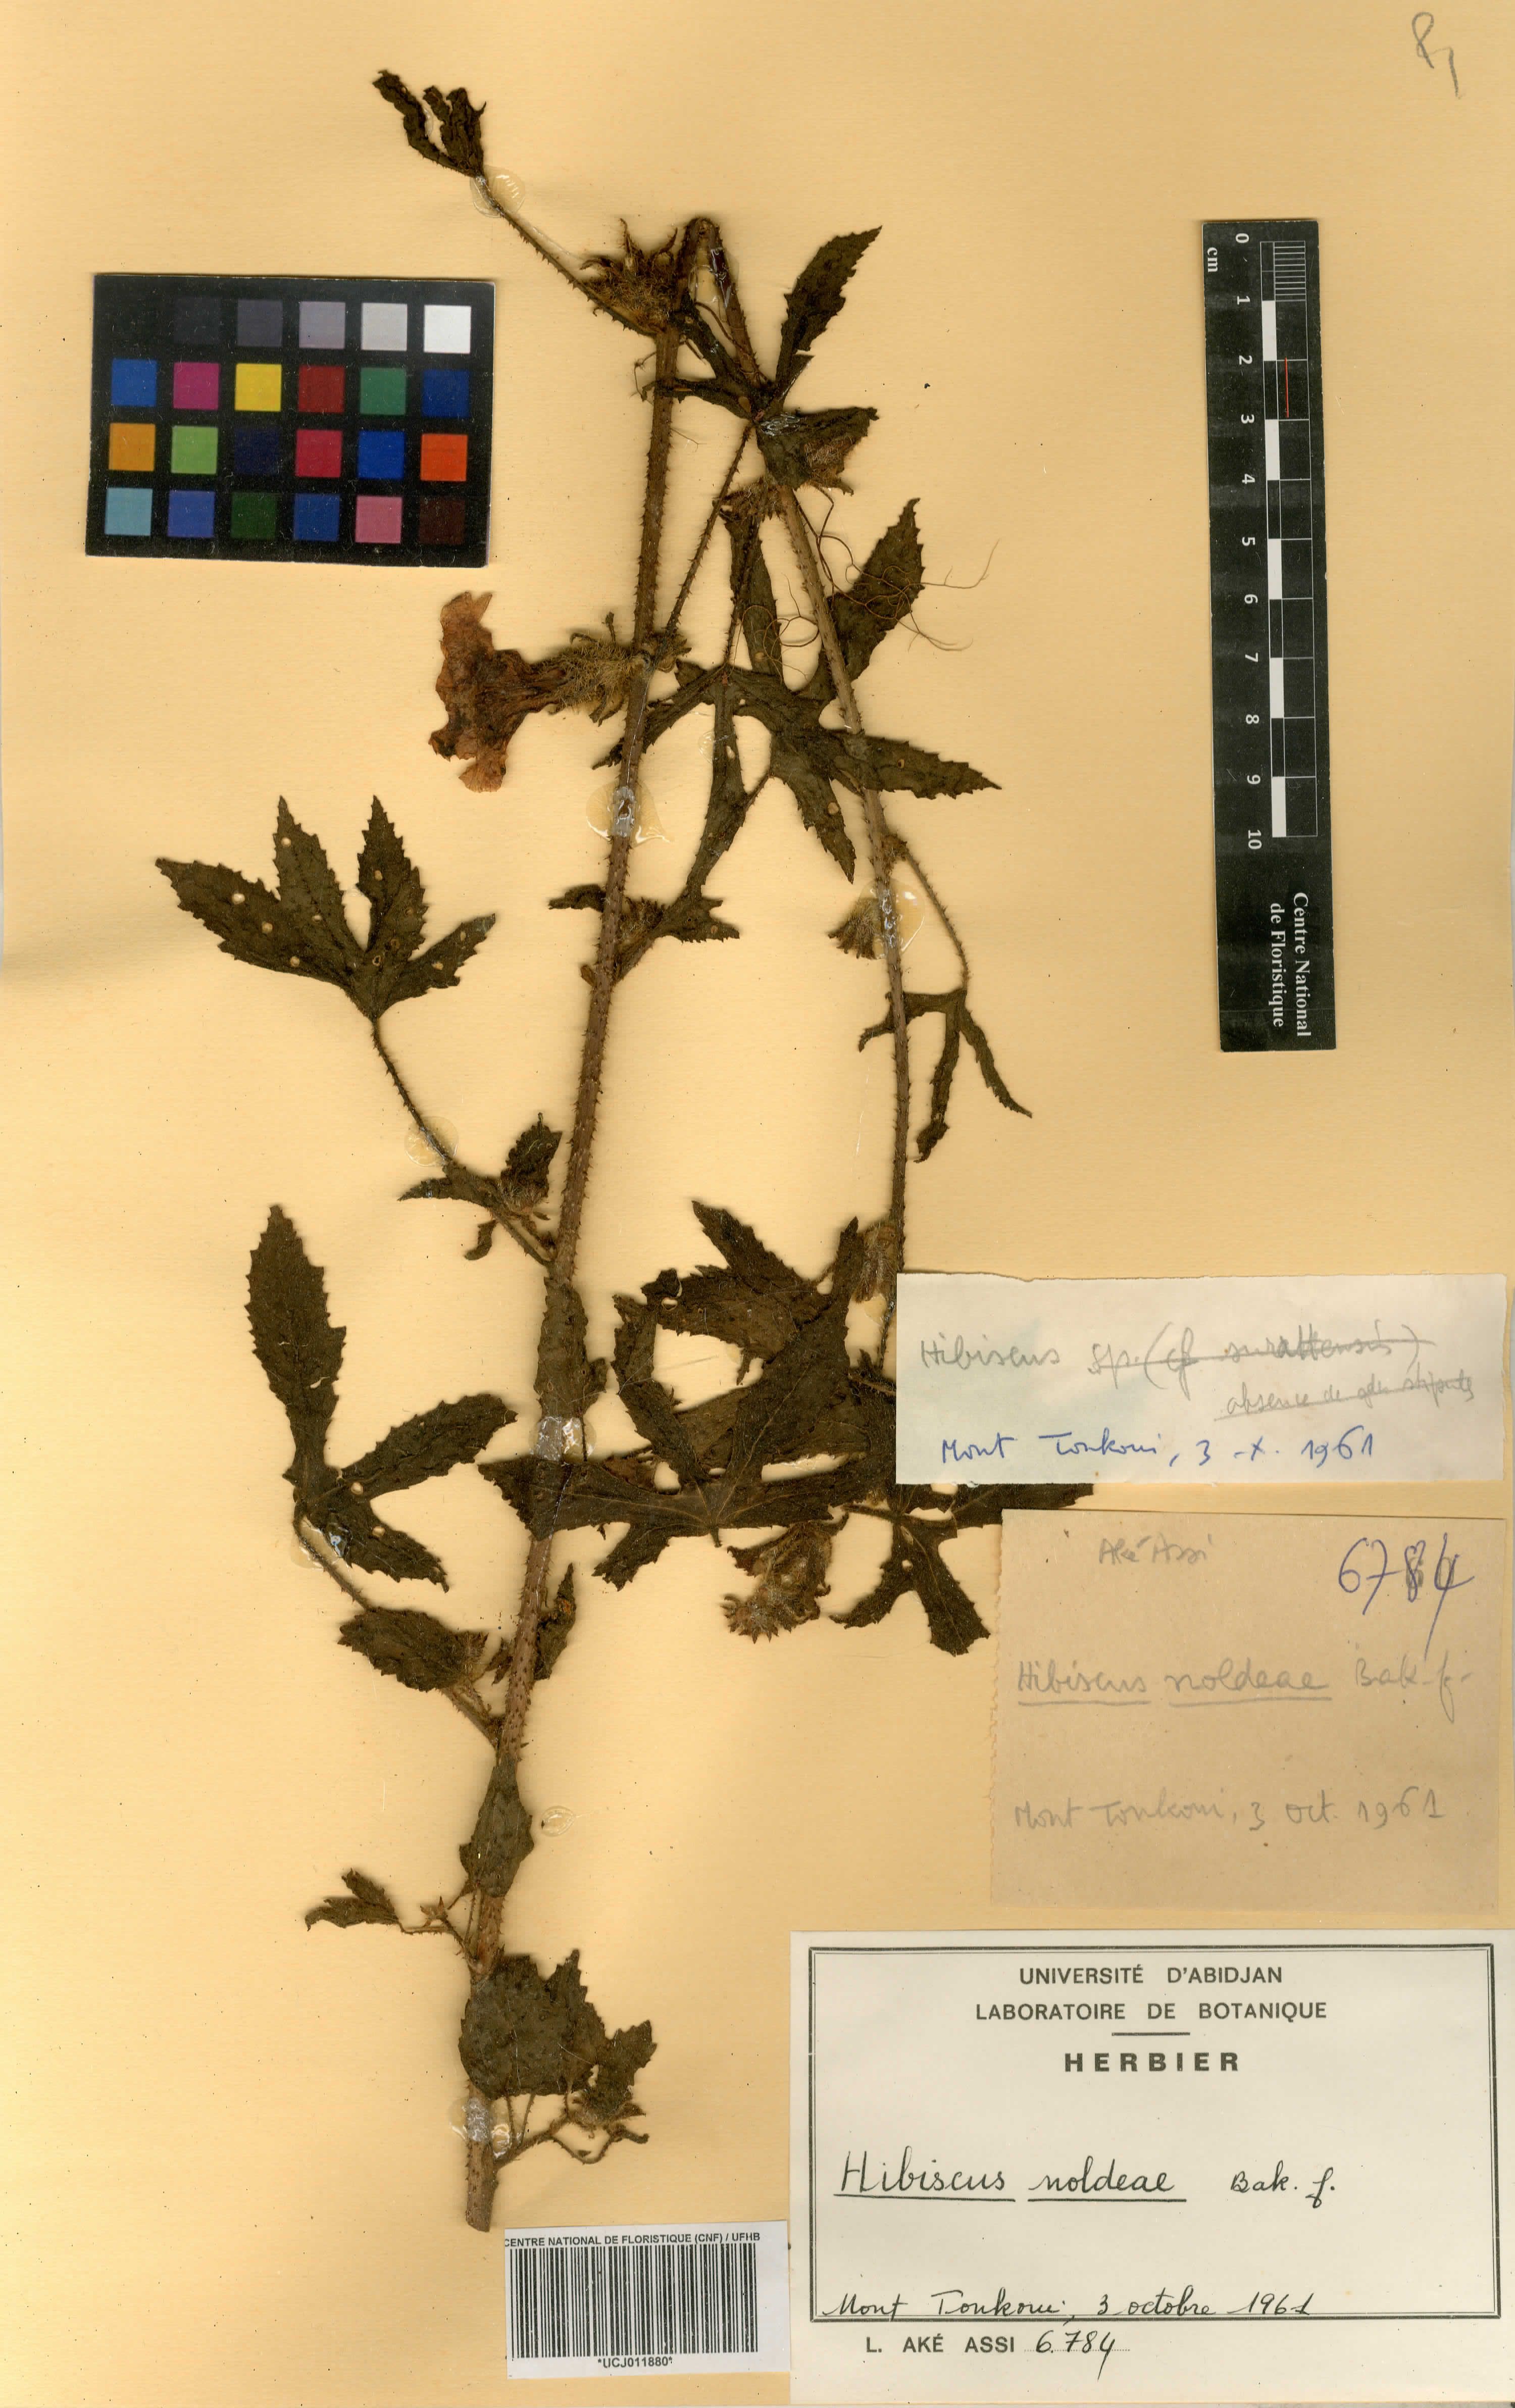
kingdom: Plantae
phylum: Tracheophyta
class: Magnoliopsida
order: Malvales
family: Malvaceae
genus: Hibiscus
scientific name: Hibiscus noldeae
